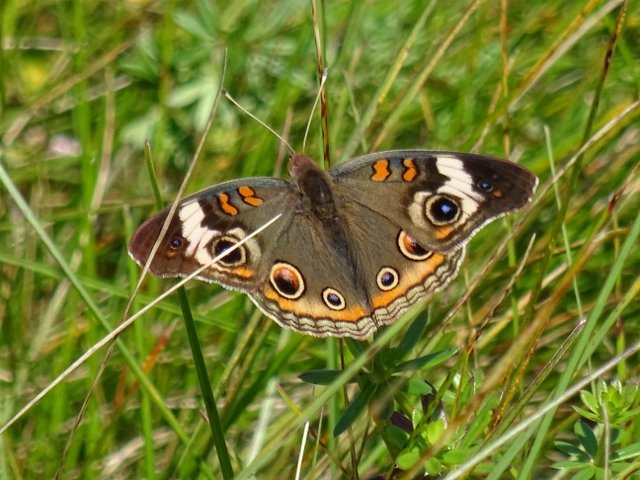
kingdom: Animalia
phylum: Arthropoda
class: Insecta
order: Lepidoptera
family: Nymphalidae
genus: Junonia
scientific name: Junonia coenia
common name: Common Buckeye
